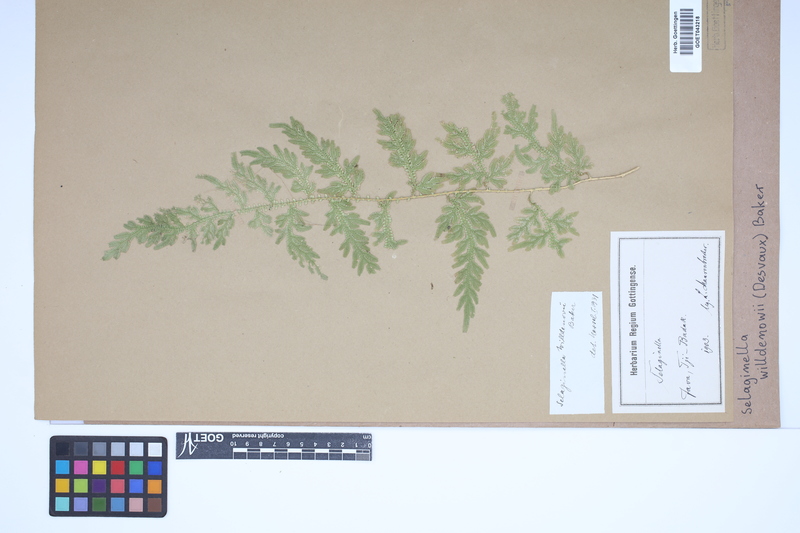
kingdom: Plantae
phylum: Tracheophyta
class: Lycopodiopsida
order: Selaginellales
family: Selaginellaceae
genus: Selaginella
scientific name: Selaginella willdenowii
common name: Willdenow's spikemoss
